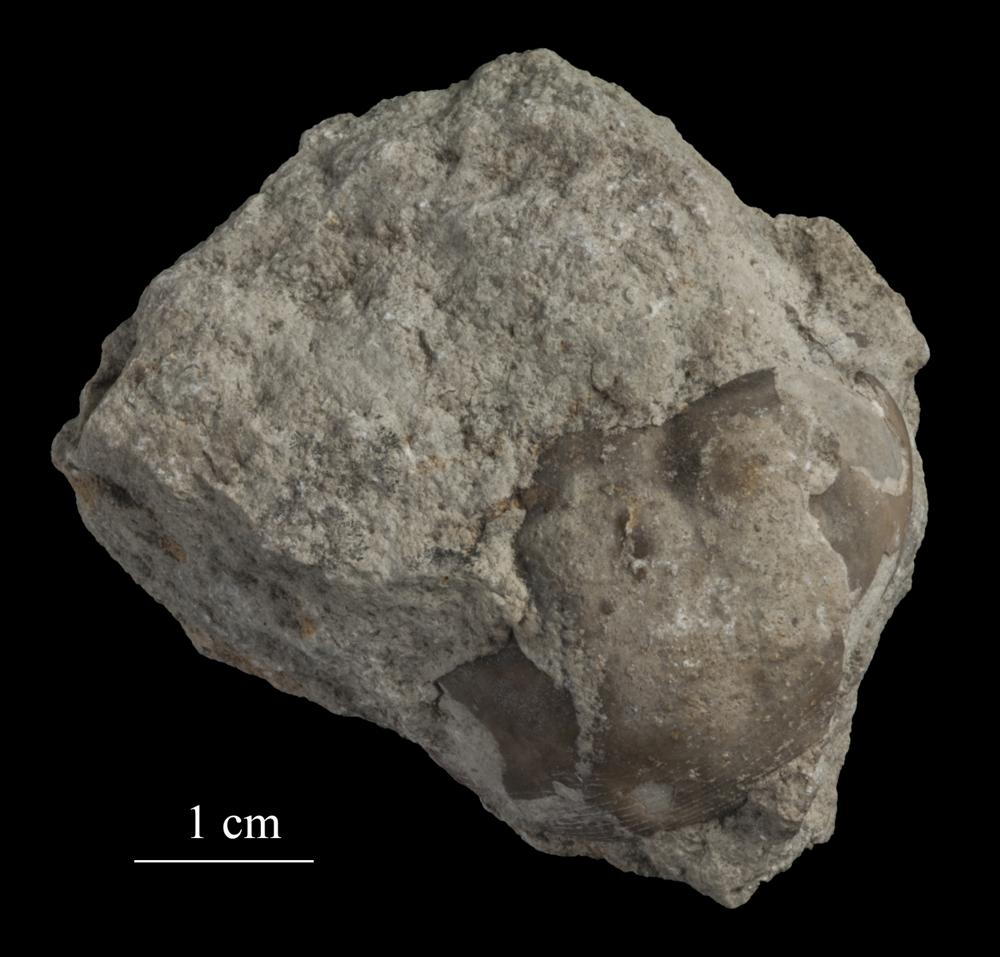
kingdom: Animalia
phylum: Arthropoda
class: Trilobita
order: Corynexochida
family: Illaenidae
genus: Illaenus
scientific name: Illaenus
